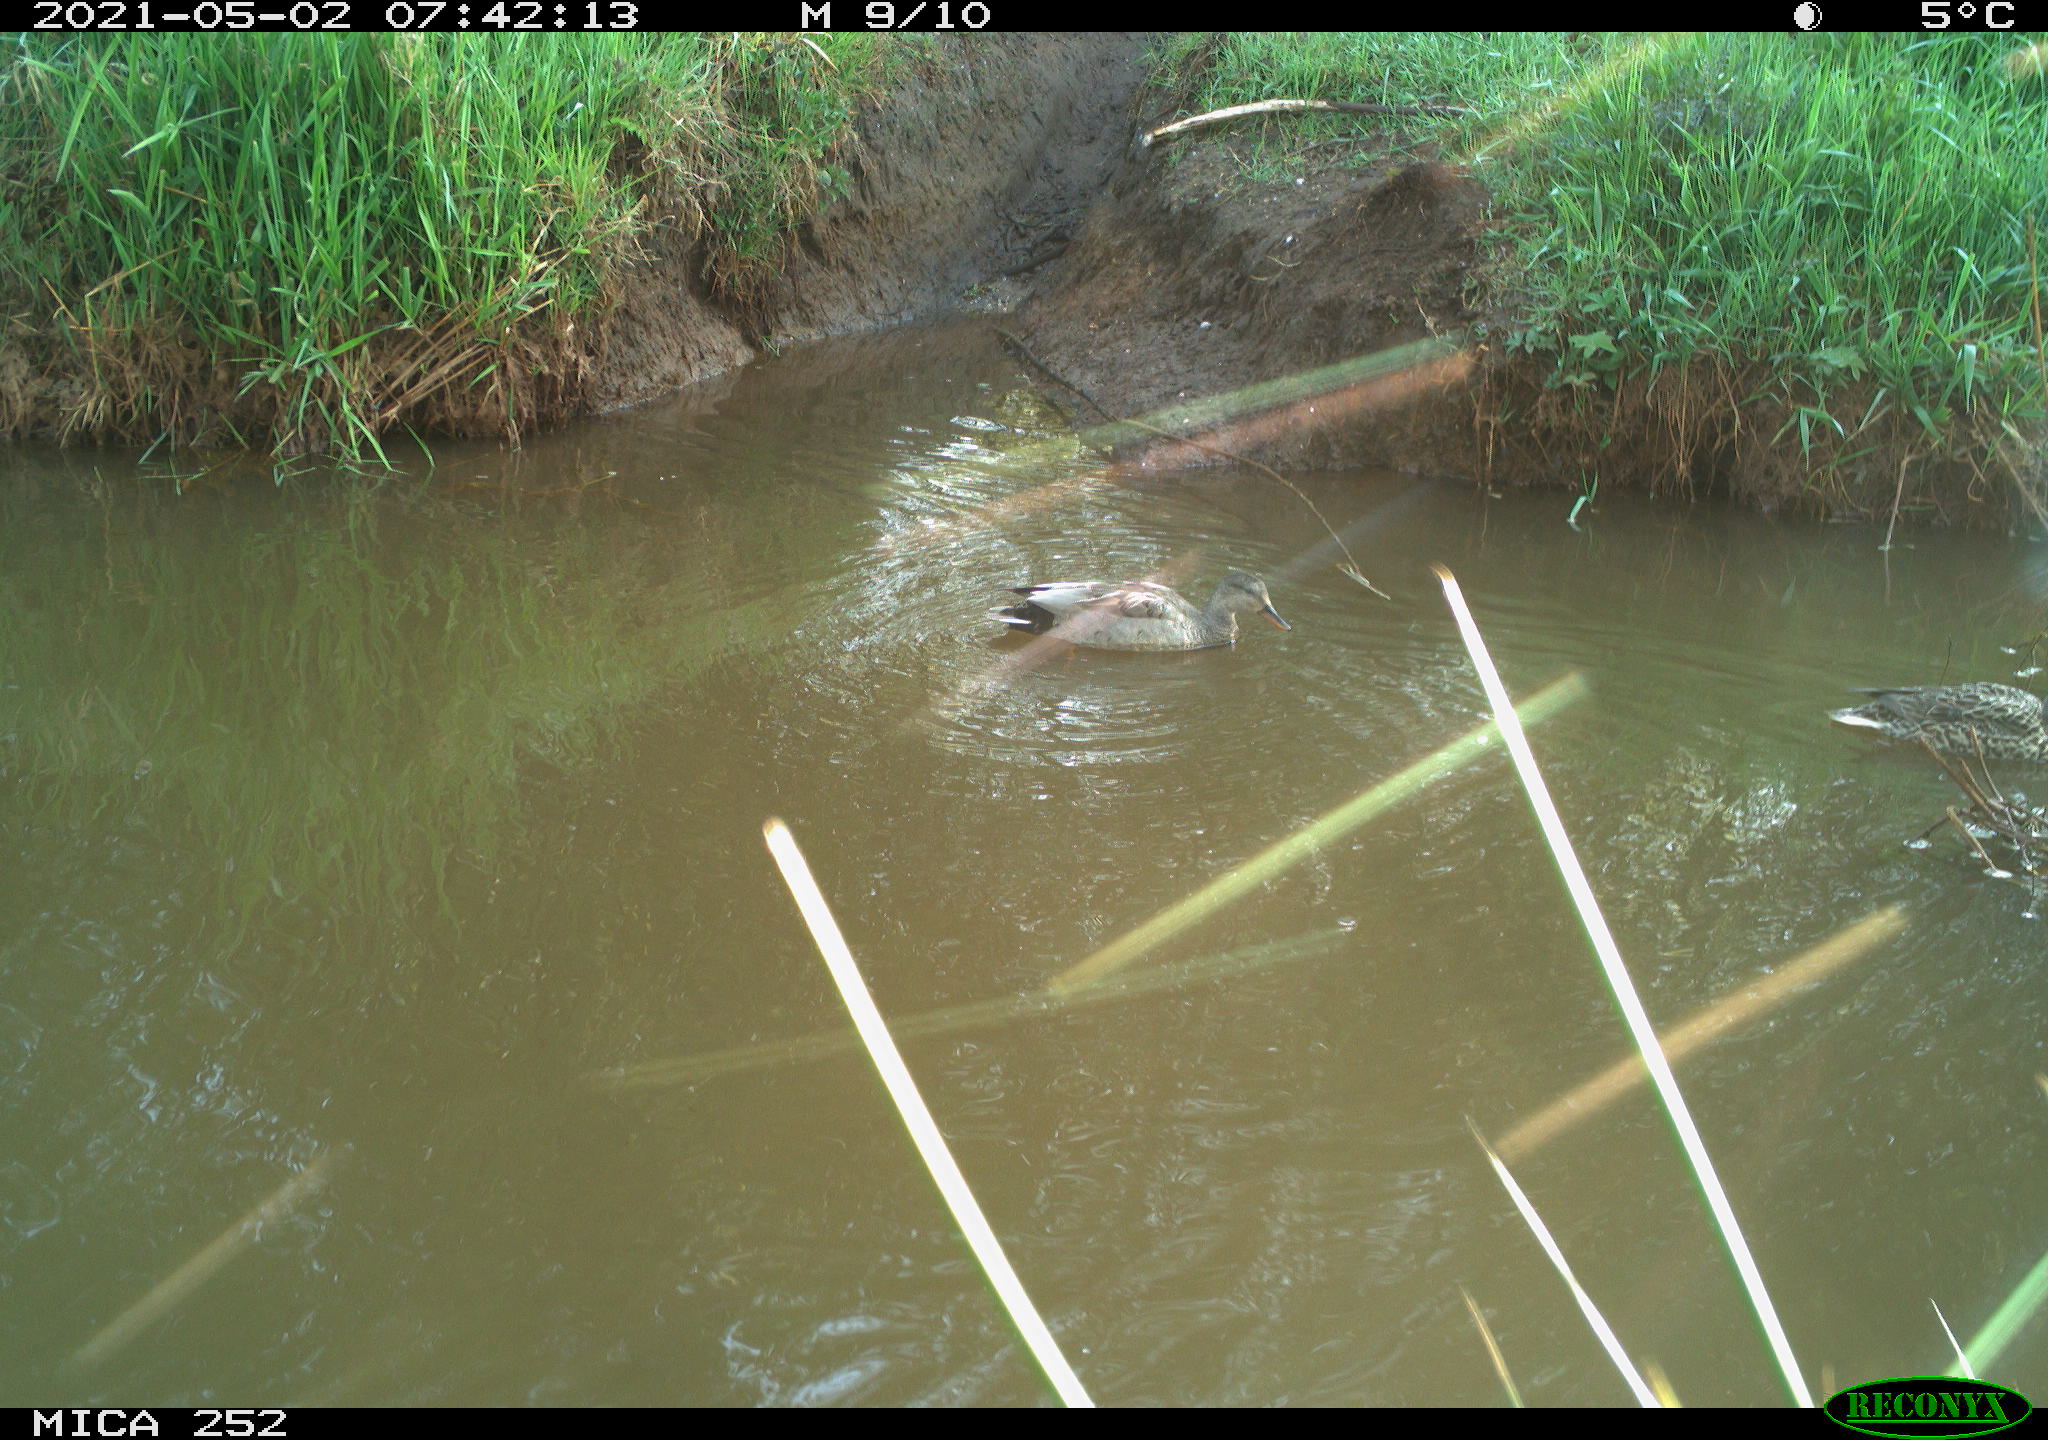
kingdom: Animalia
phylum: Chordata
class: Aves
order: Anseriformes
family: Anatidae
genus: Anas
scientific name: Anas
